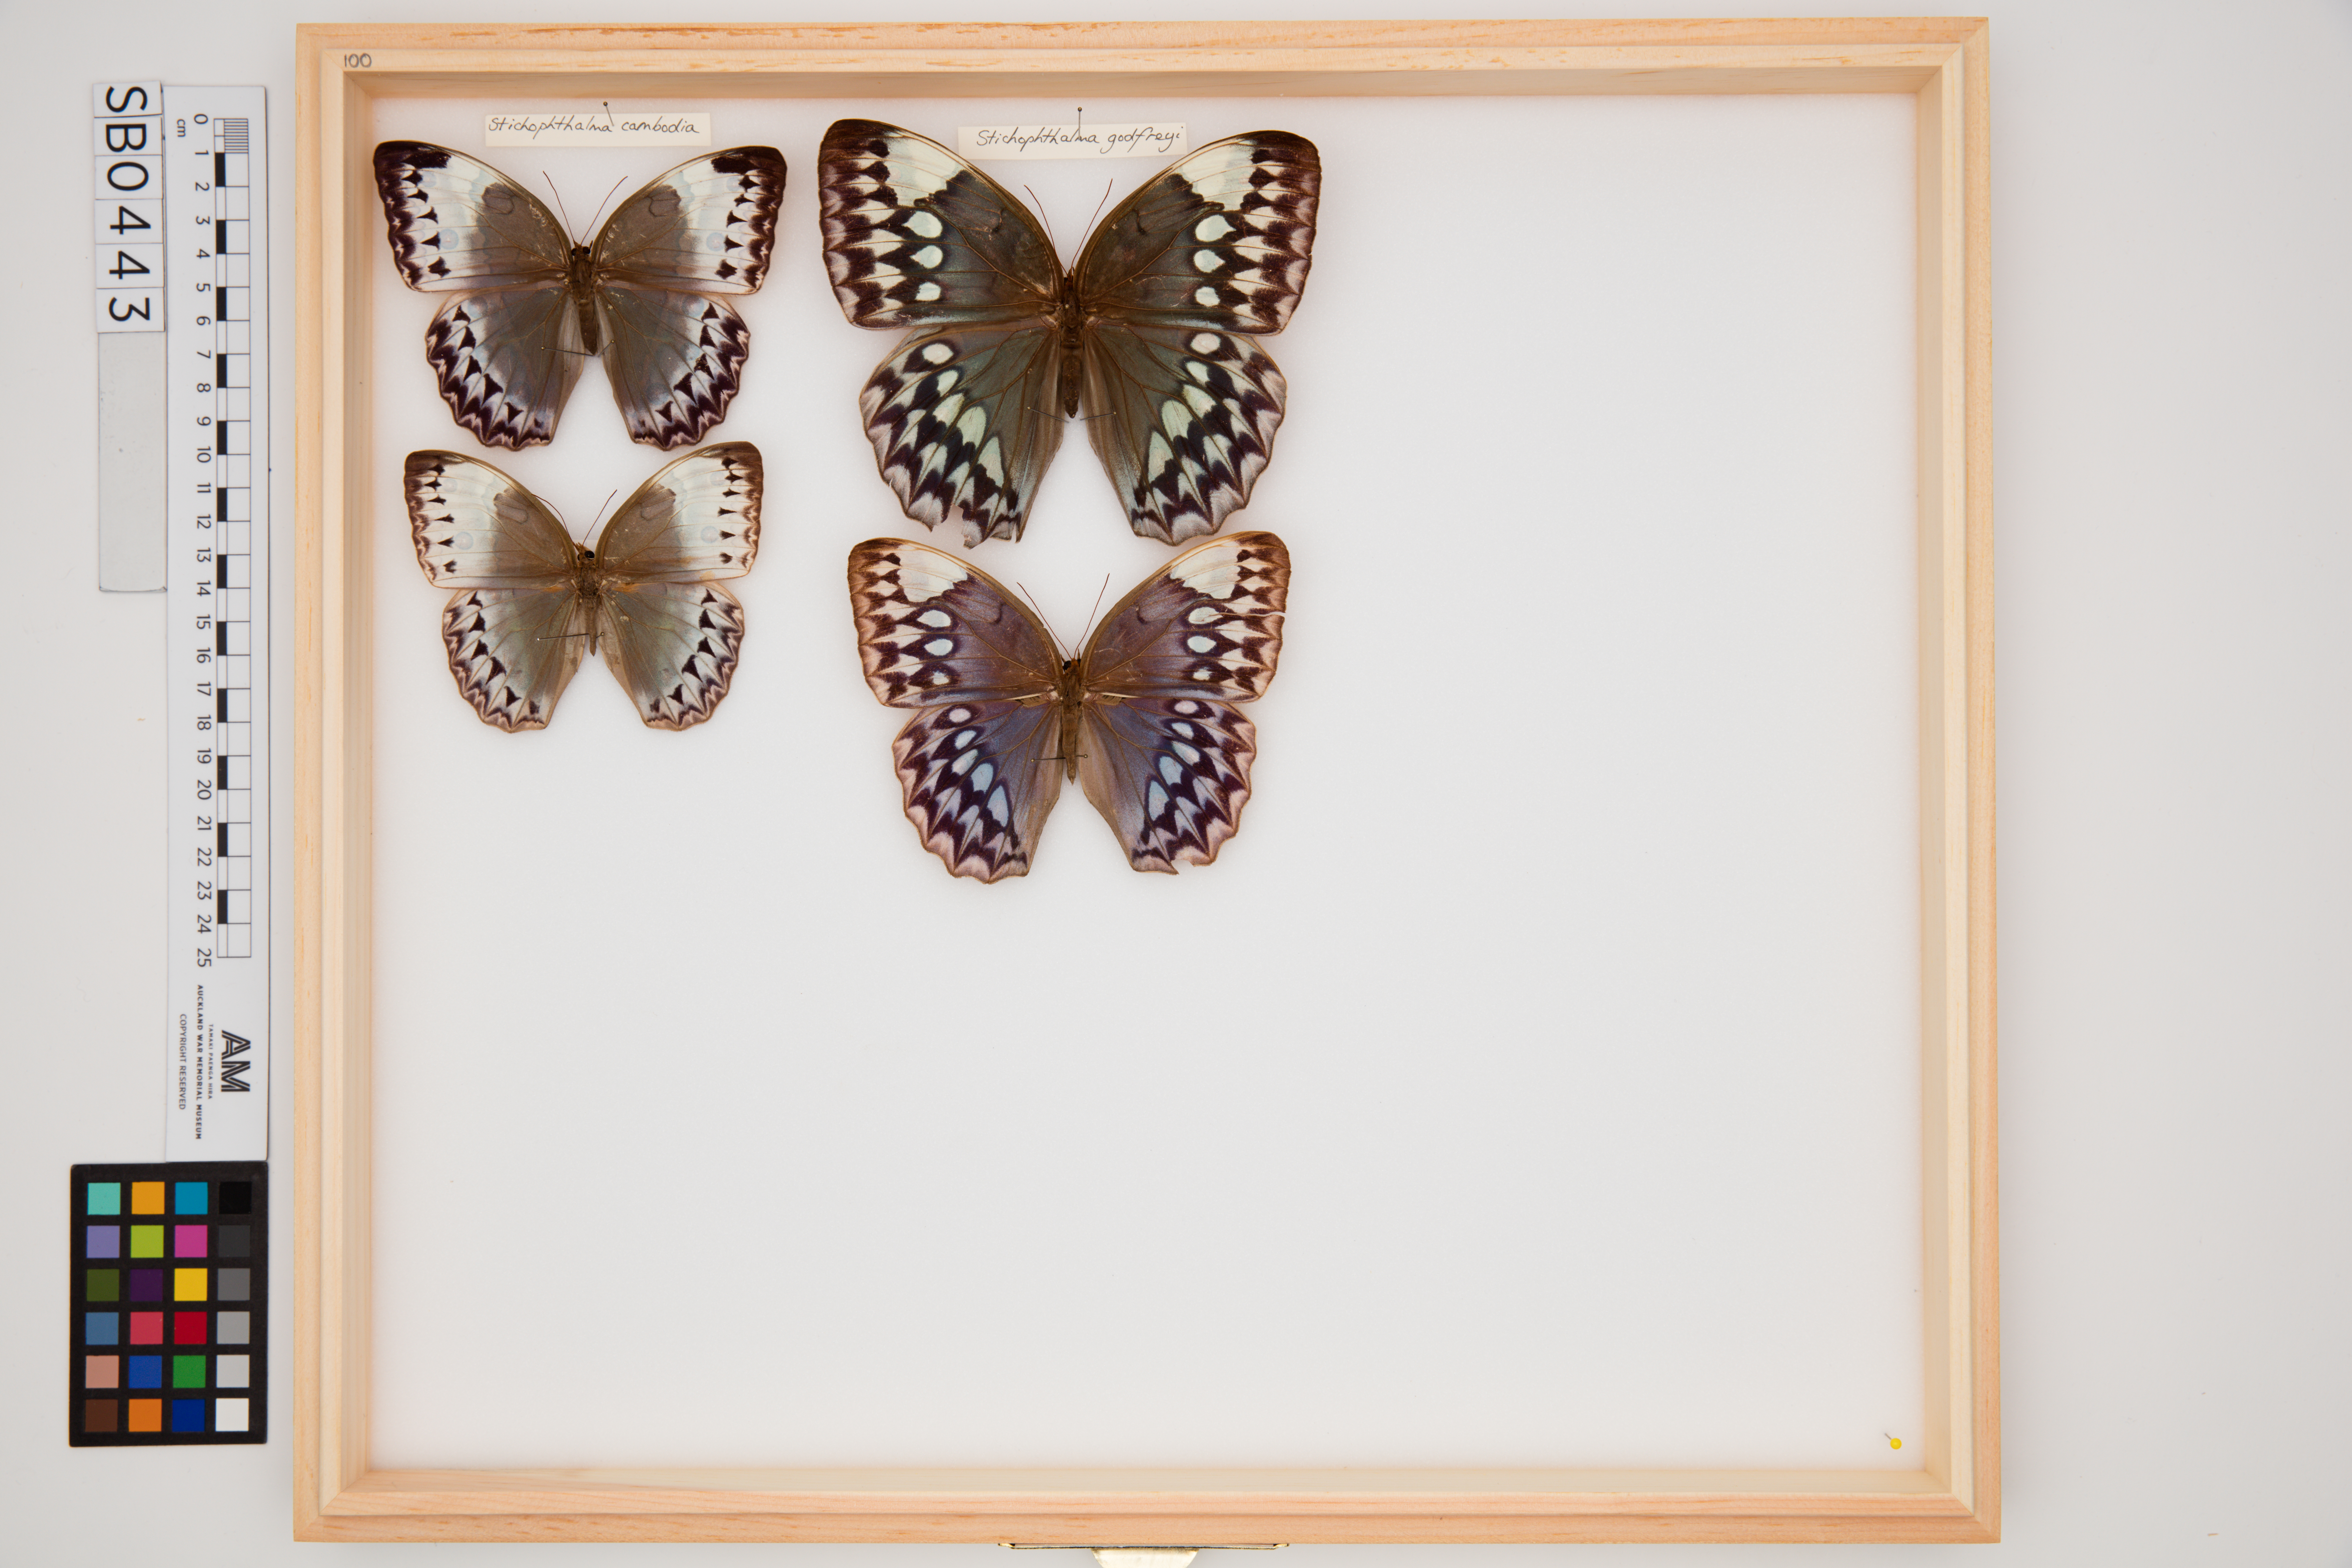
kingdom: Animalia
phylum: Arthropoda
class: Insecta
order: Lepidoptera
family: Nymphalidae
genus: Stichophthalma
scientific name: Stichophthalma godfreyi
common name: Godfrey's jungle queen
